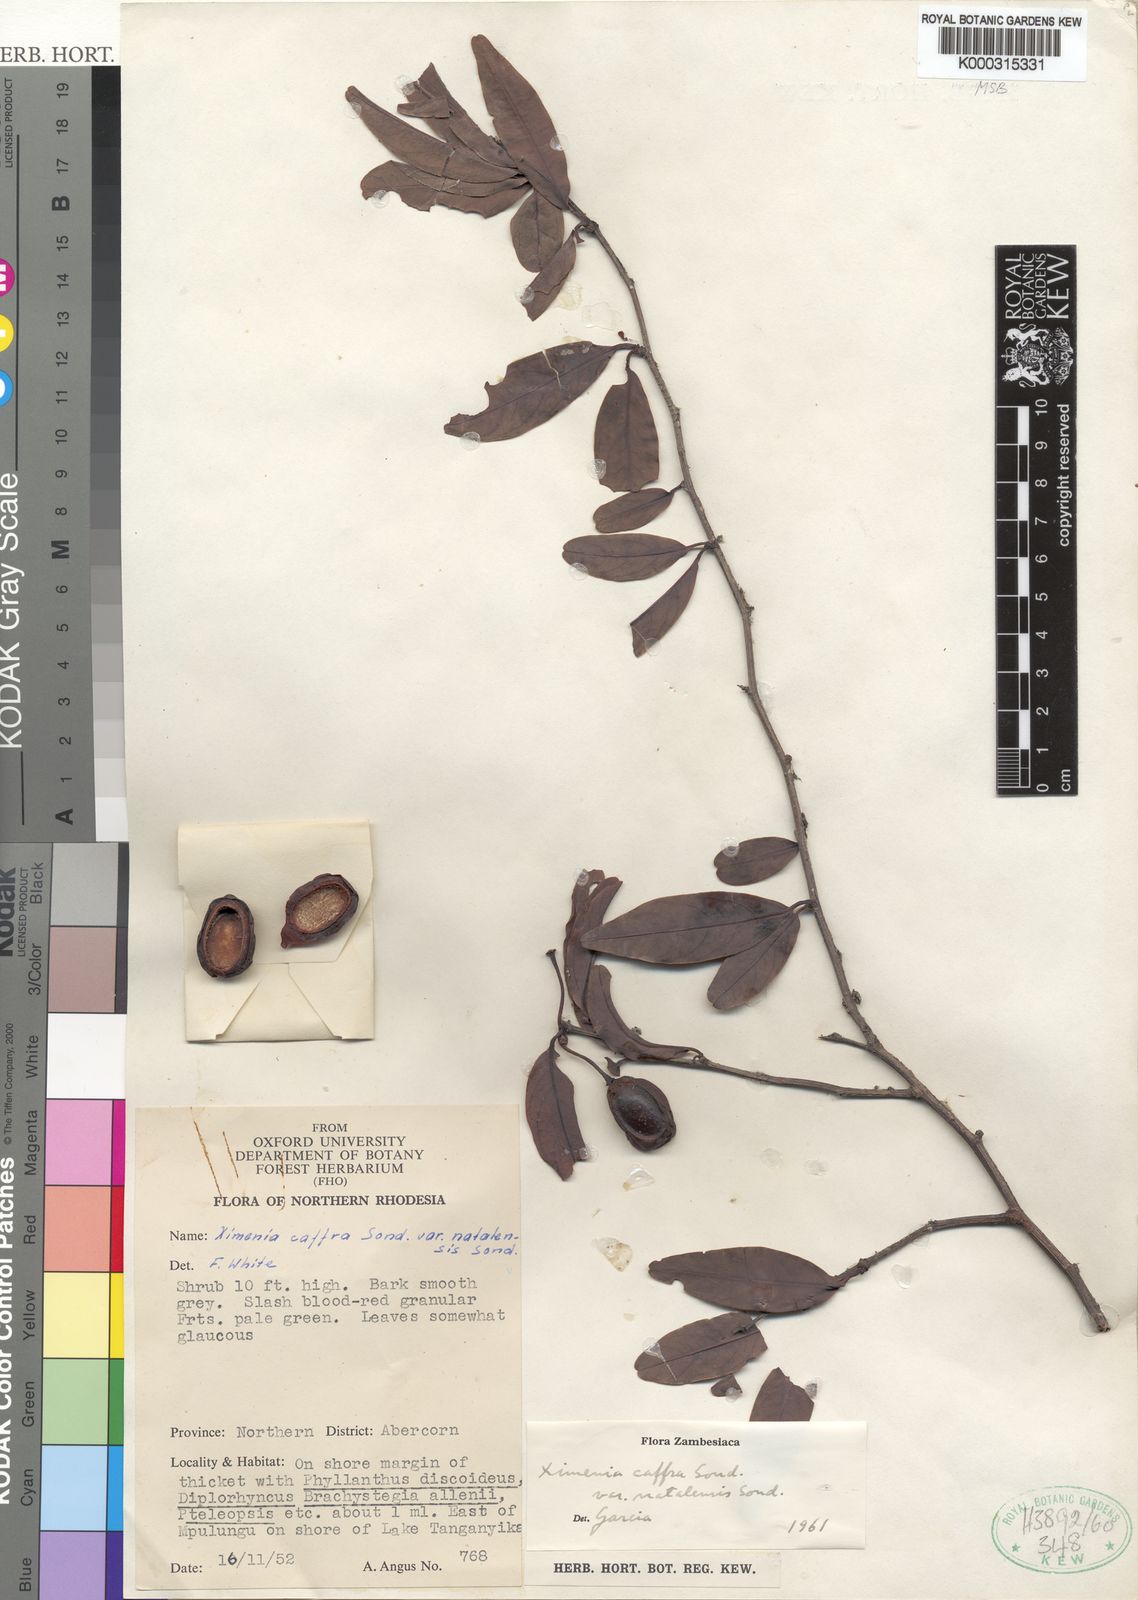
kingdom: Plantae
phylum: Tracheophyta
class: Magnoliopsida
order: Santalales
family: Ximeniaceae
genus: Ximenia
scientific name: Ximenia caffra
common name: Large sourplum
